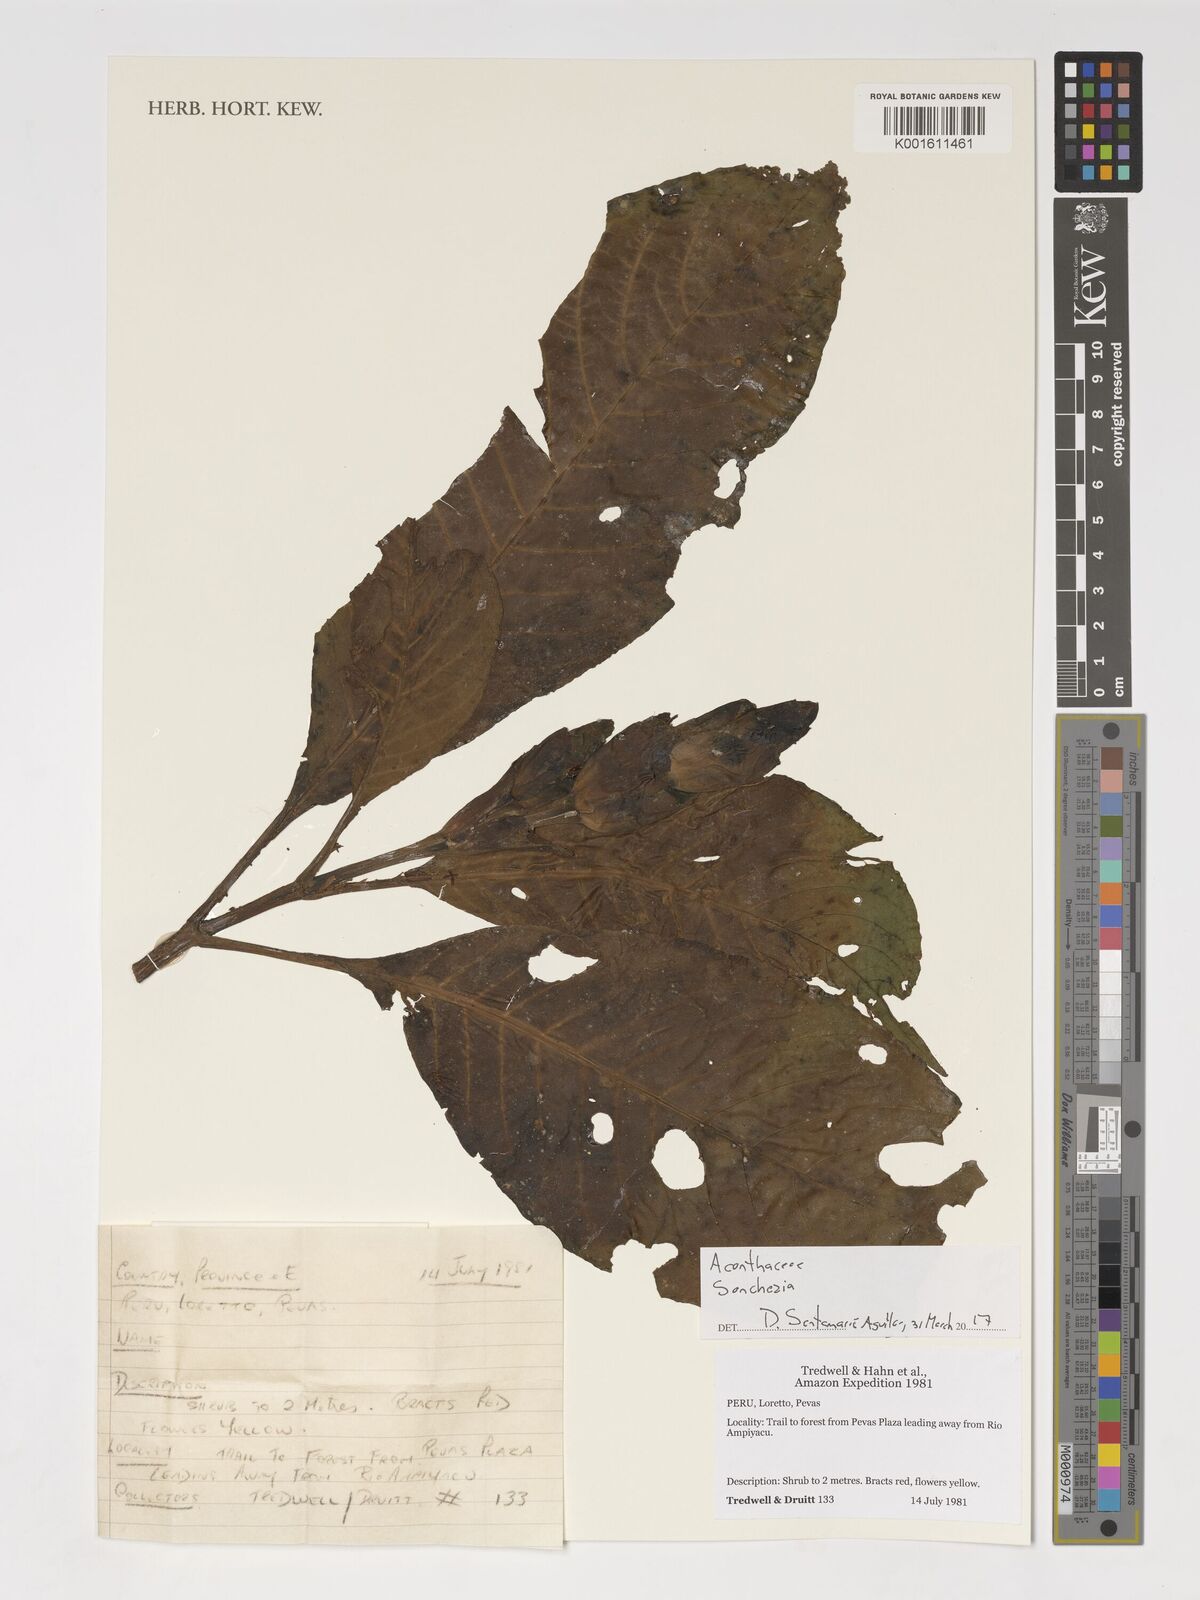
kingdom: Plantae
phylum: Tracheophyta
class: Magnoliopsida
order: Lamiales
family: Acanthaceae
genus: Sanchezia
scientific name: Sanchezia
